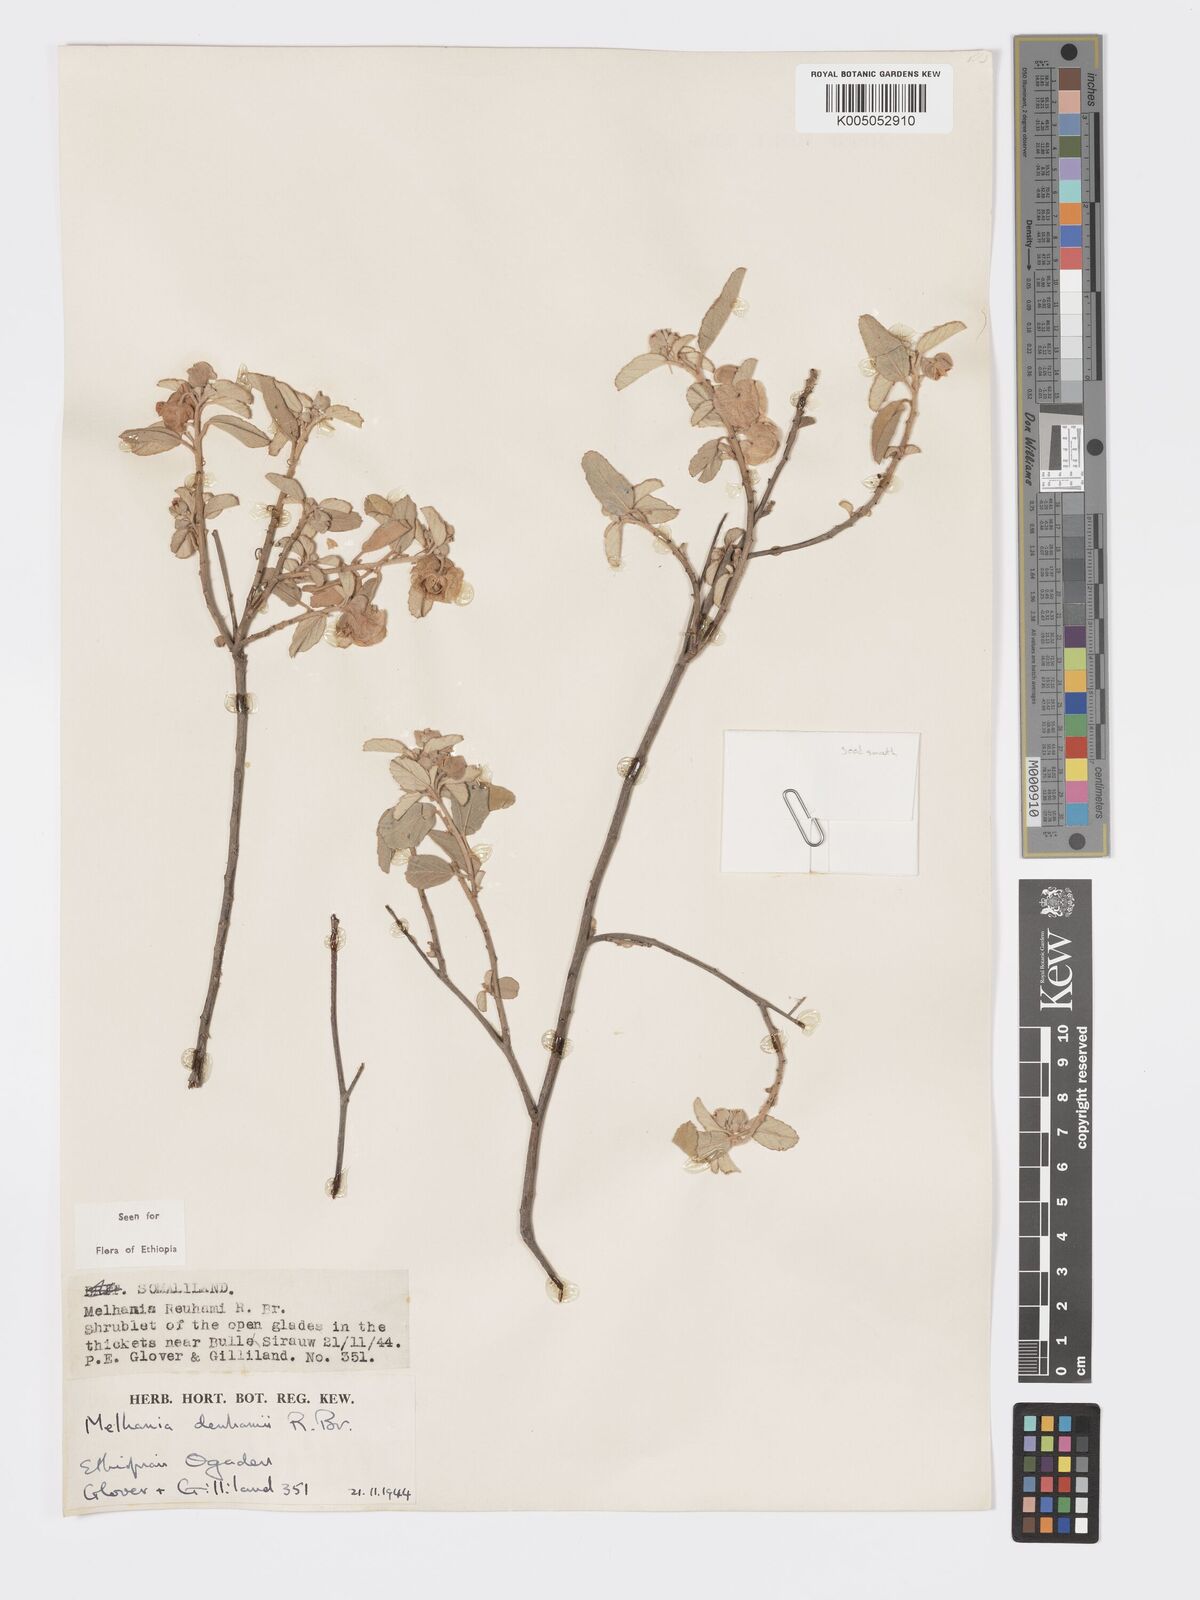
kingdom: Plantae
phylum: Tracheophyta
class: Magnoliopsida
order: Malvales
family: Malvaceae
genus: Melhania
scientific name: Melhania denhamii
